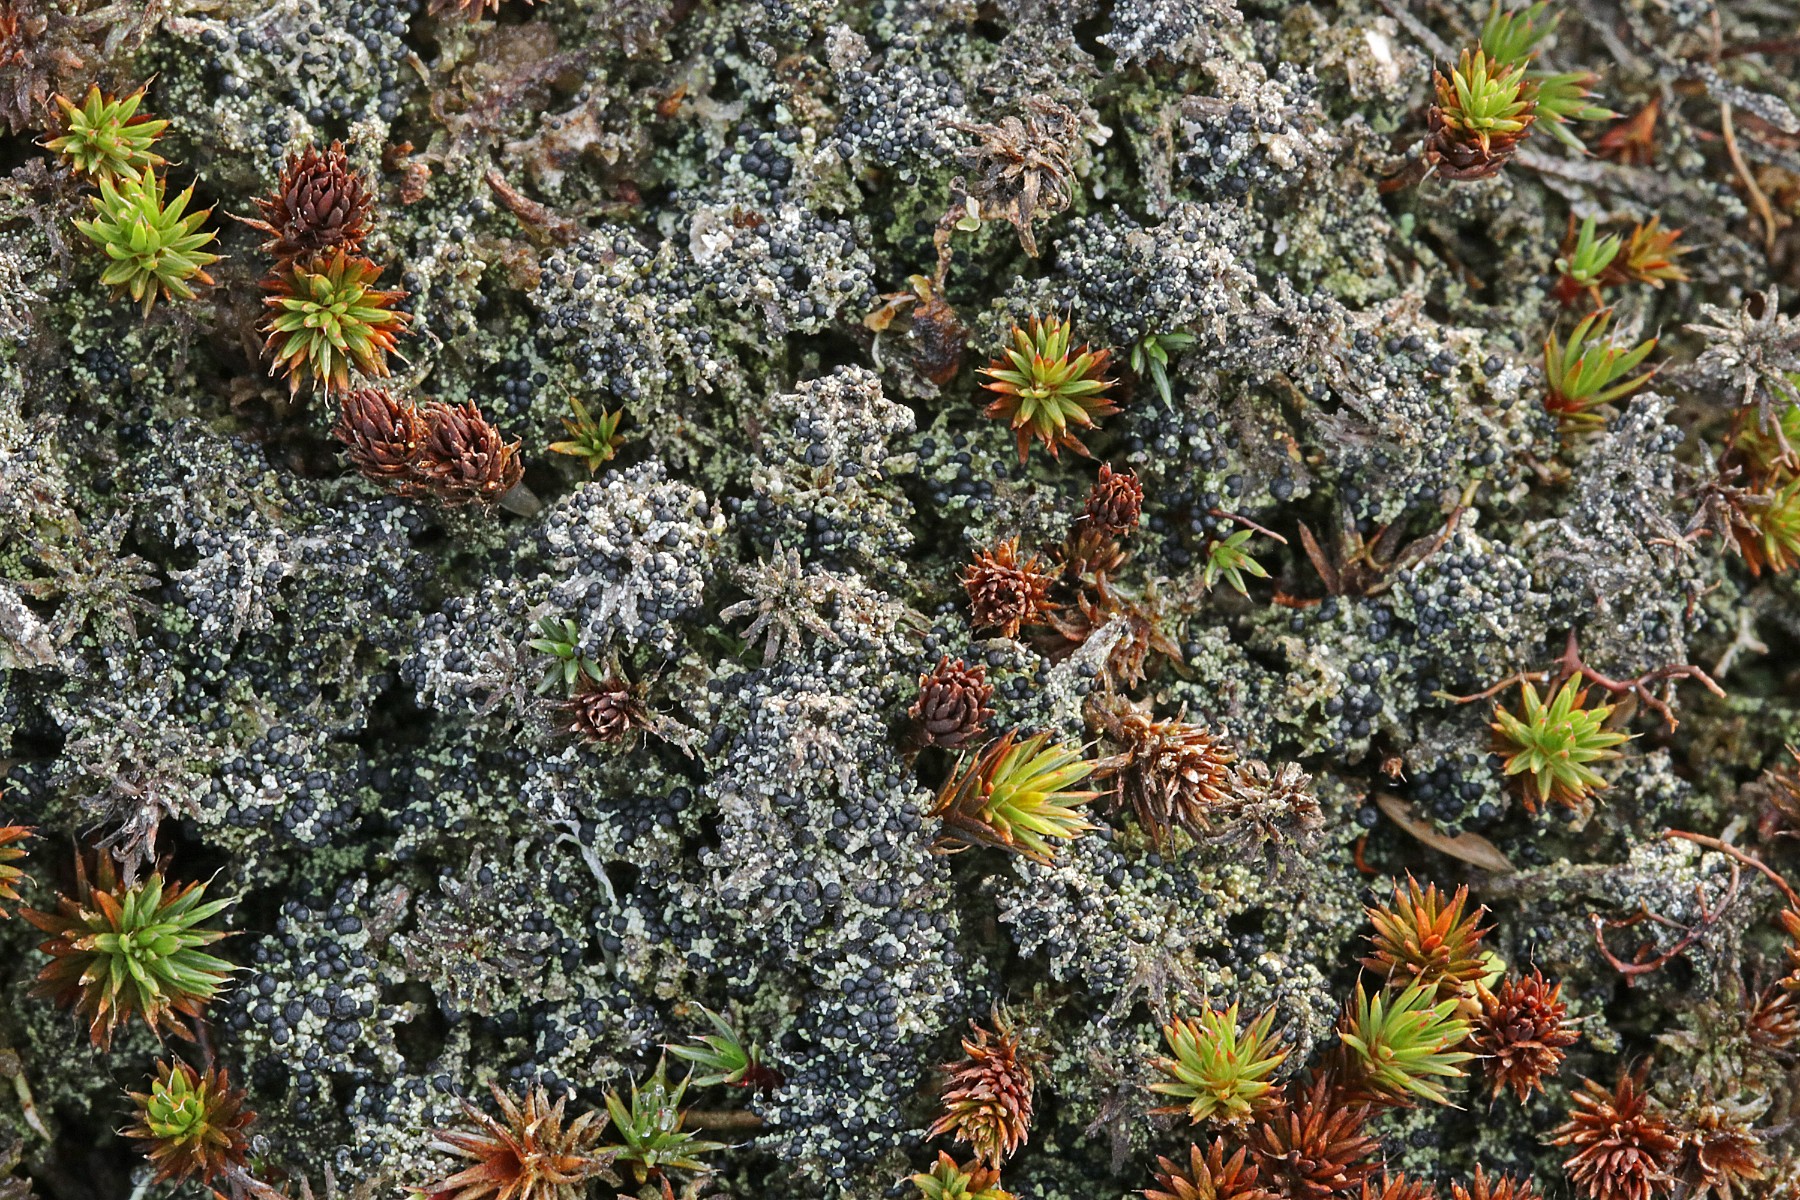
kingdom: Fungi
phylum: Ascomycota
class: Lecanoromycetes
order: Lecanorales
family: Byssolomataceae
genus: Micarea
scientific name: Micarea lignaria
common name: tørve-knaplav
